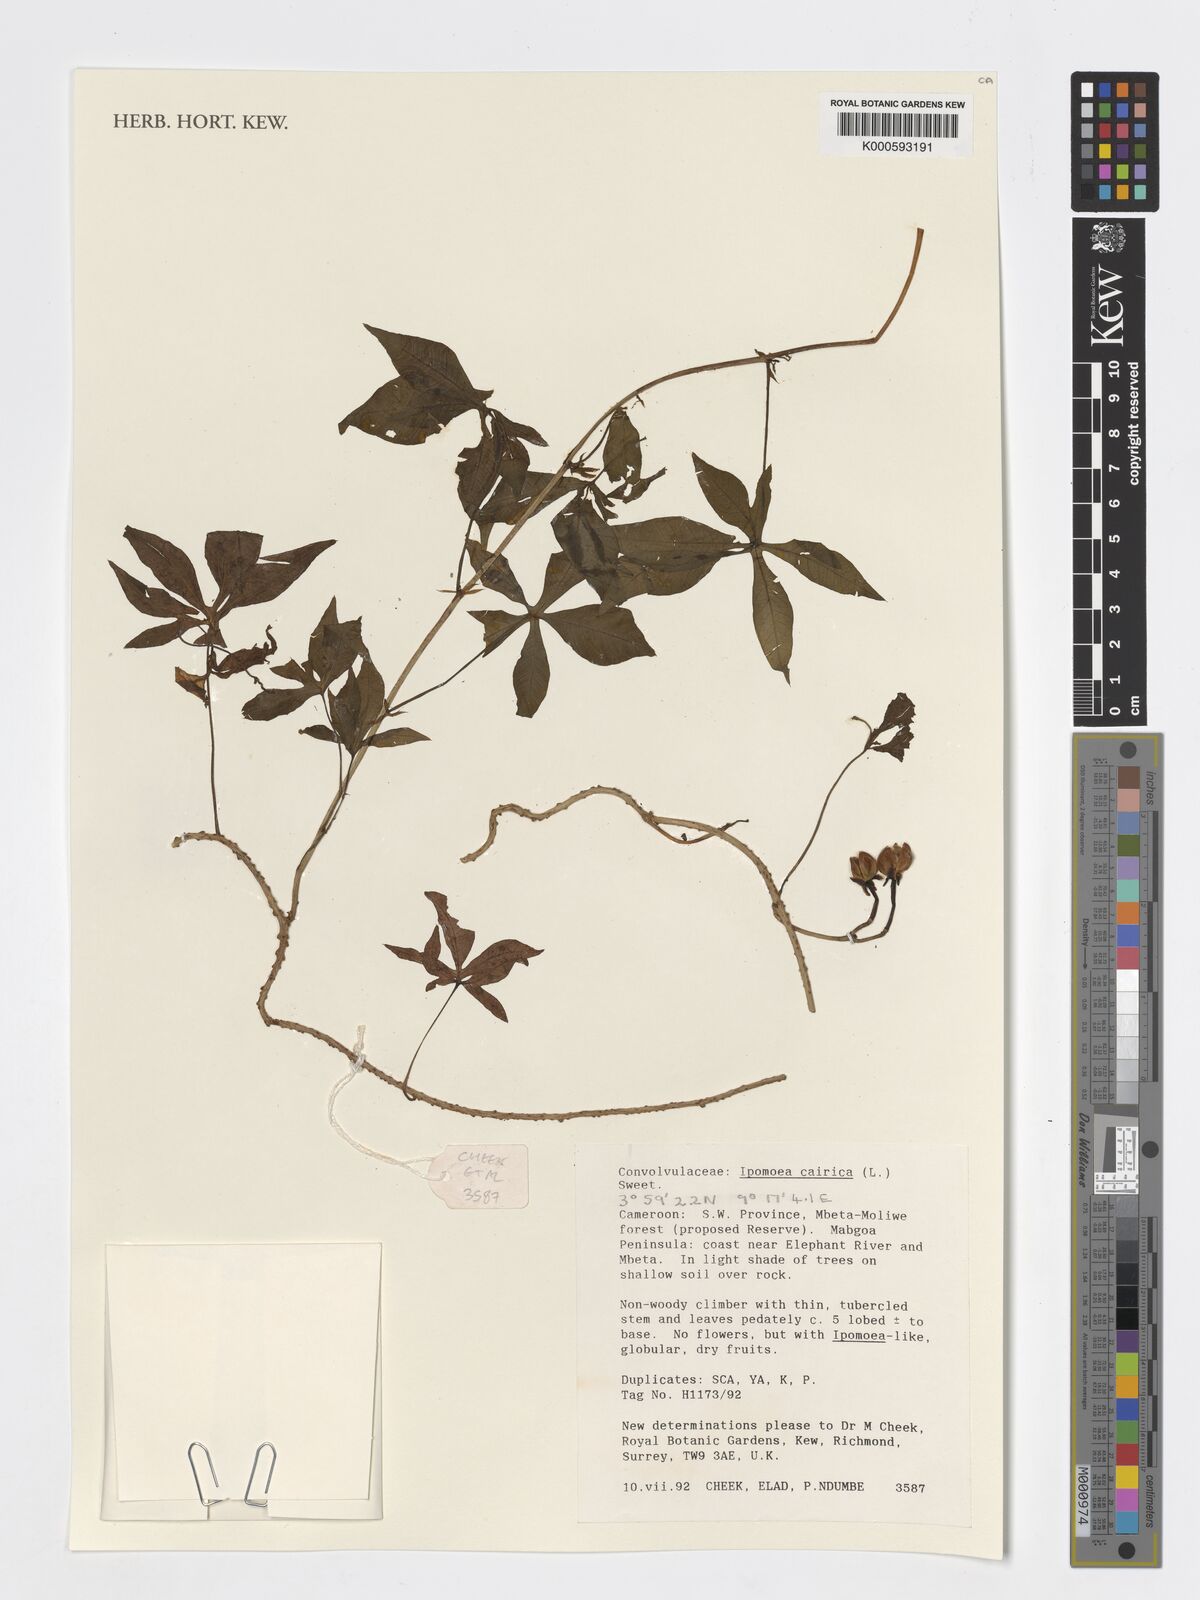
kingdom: Plantae
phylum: Tracheophyta
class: Magnoliopsida
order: Solanales
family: Convolvulaceae
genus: Ipomoea
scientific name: Ipomoea cairica
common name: Mile a minute vine
